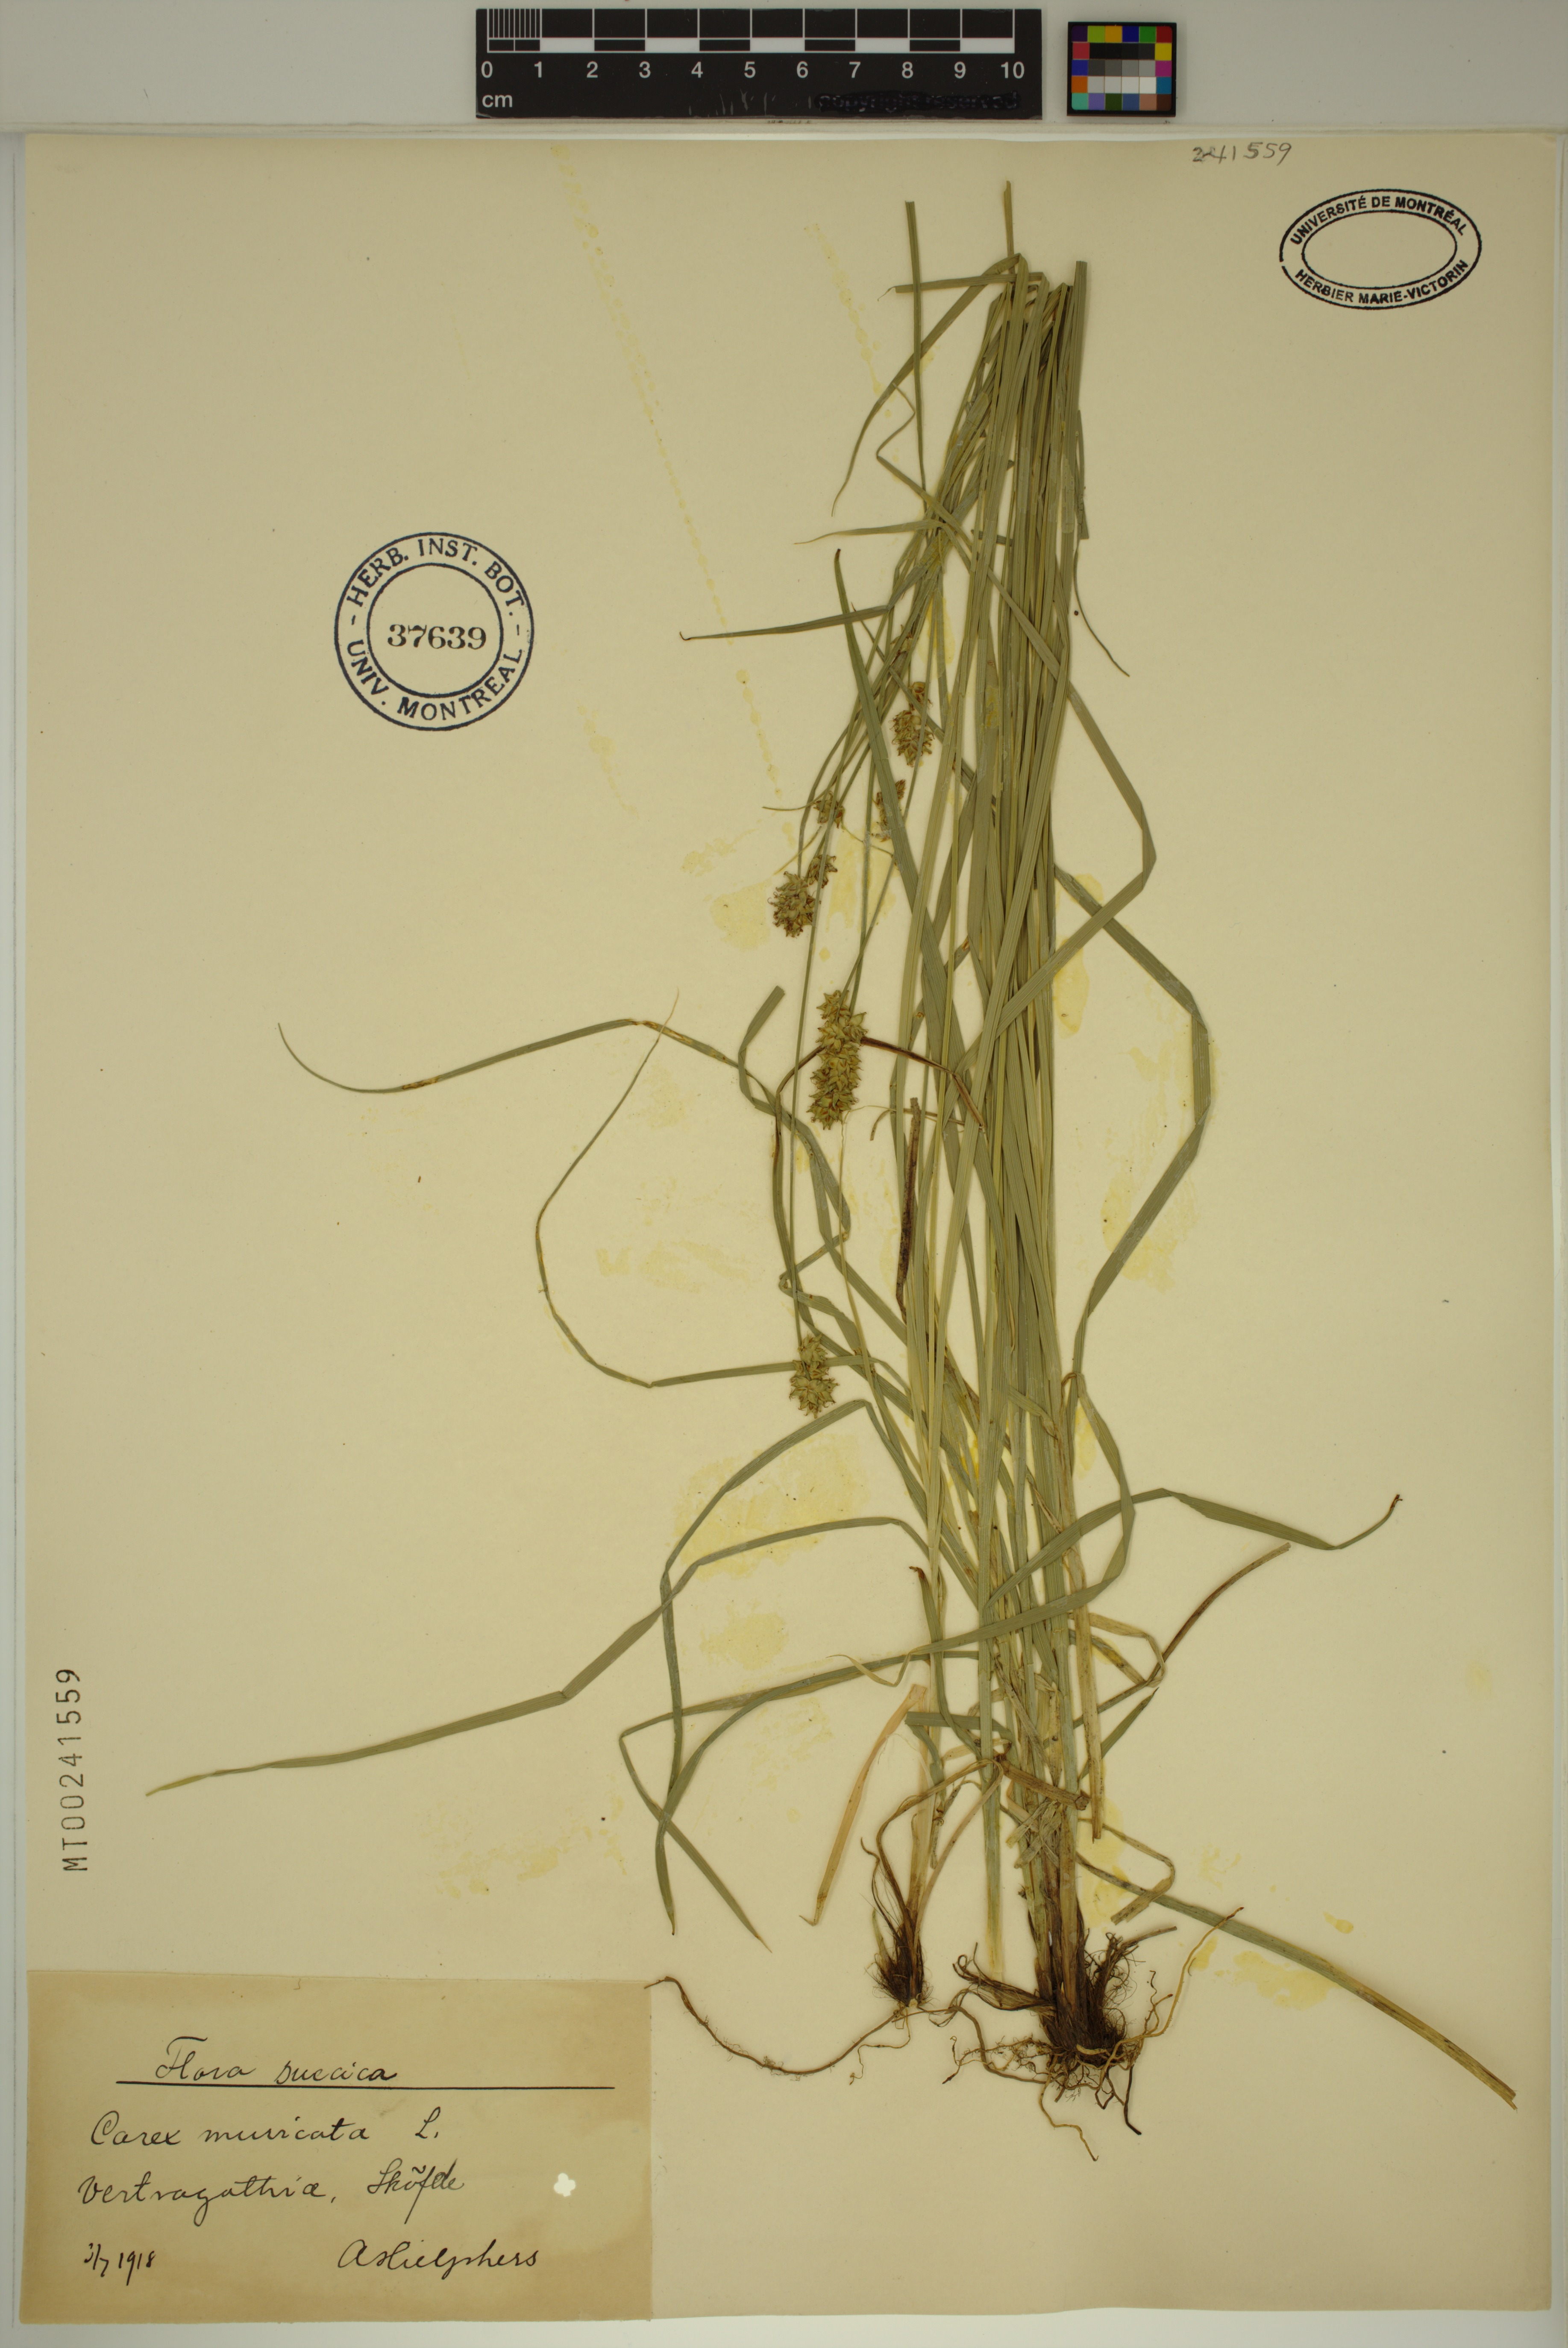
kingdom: Plantae
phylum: Tracheophyta
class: Liliopsida
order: Poales
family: Cyperaceae
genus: Carex
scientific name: Carex muricata
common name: Rough sedge
